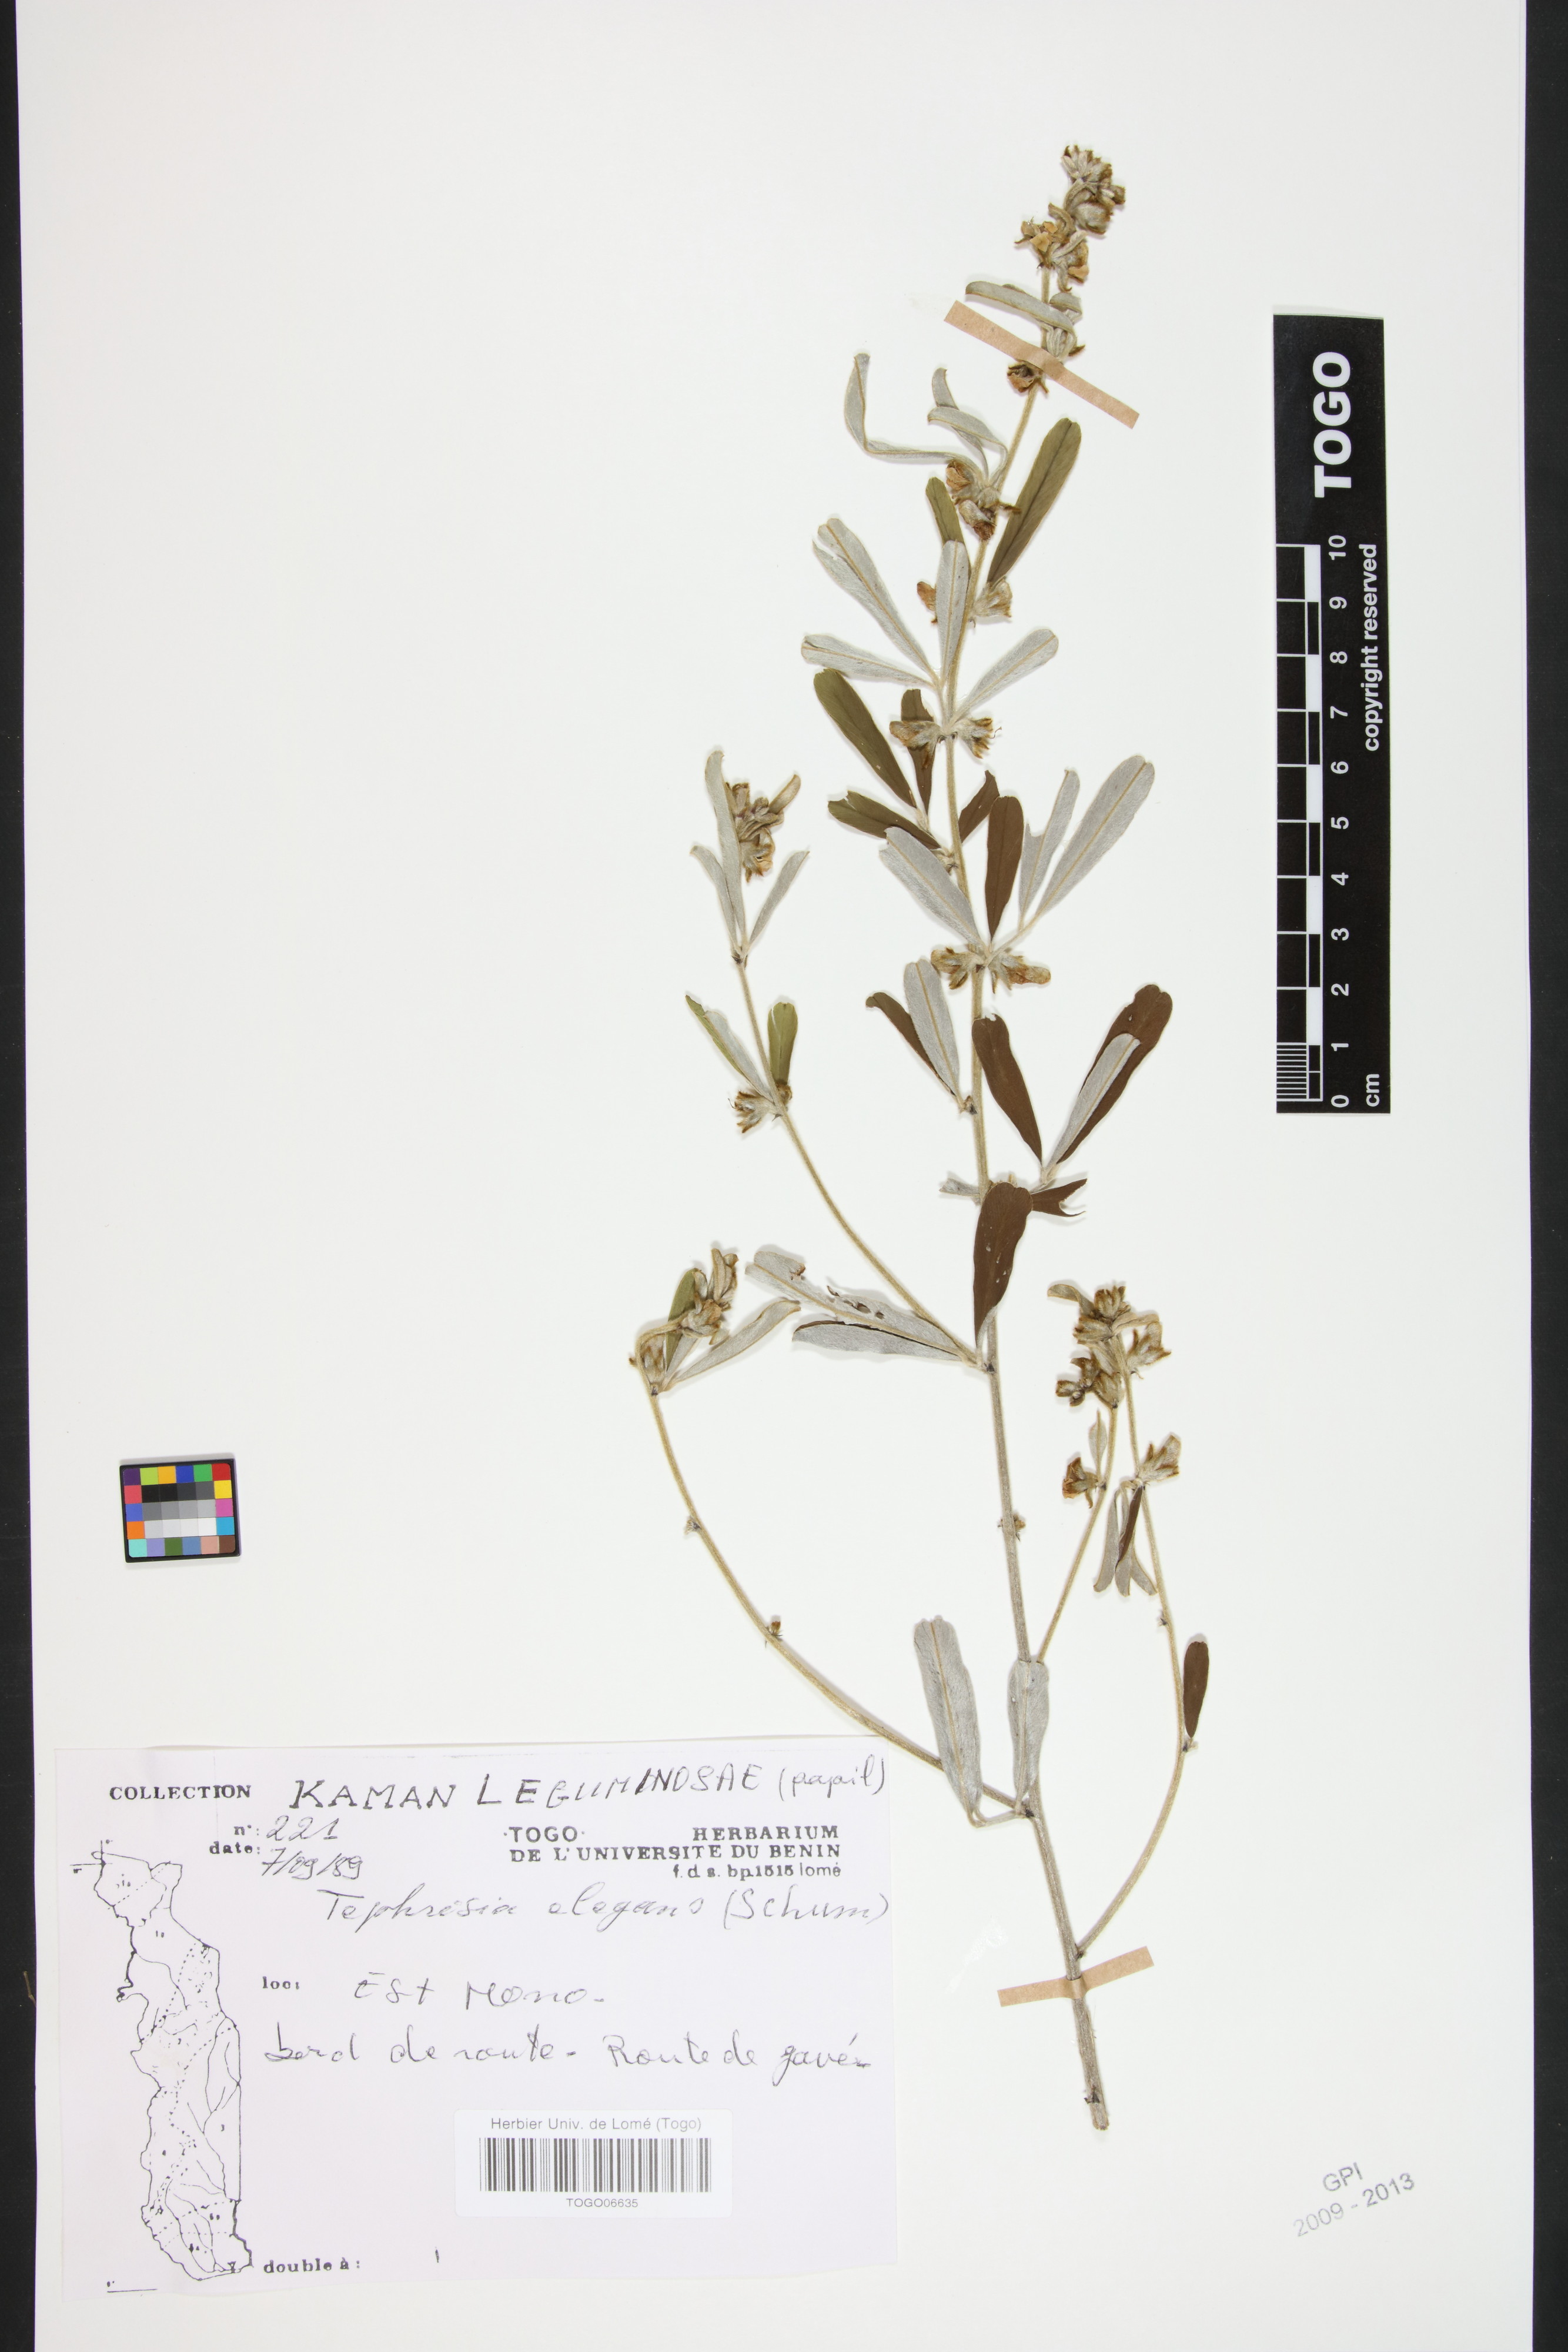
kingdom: Plantae
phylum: Tracheophyta
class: Magnoliopsida
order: Fabales
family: Fabaceae
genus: Tephrosia
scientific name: Tephrosia elegans
